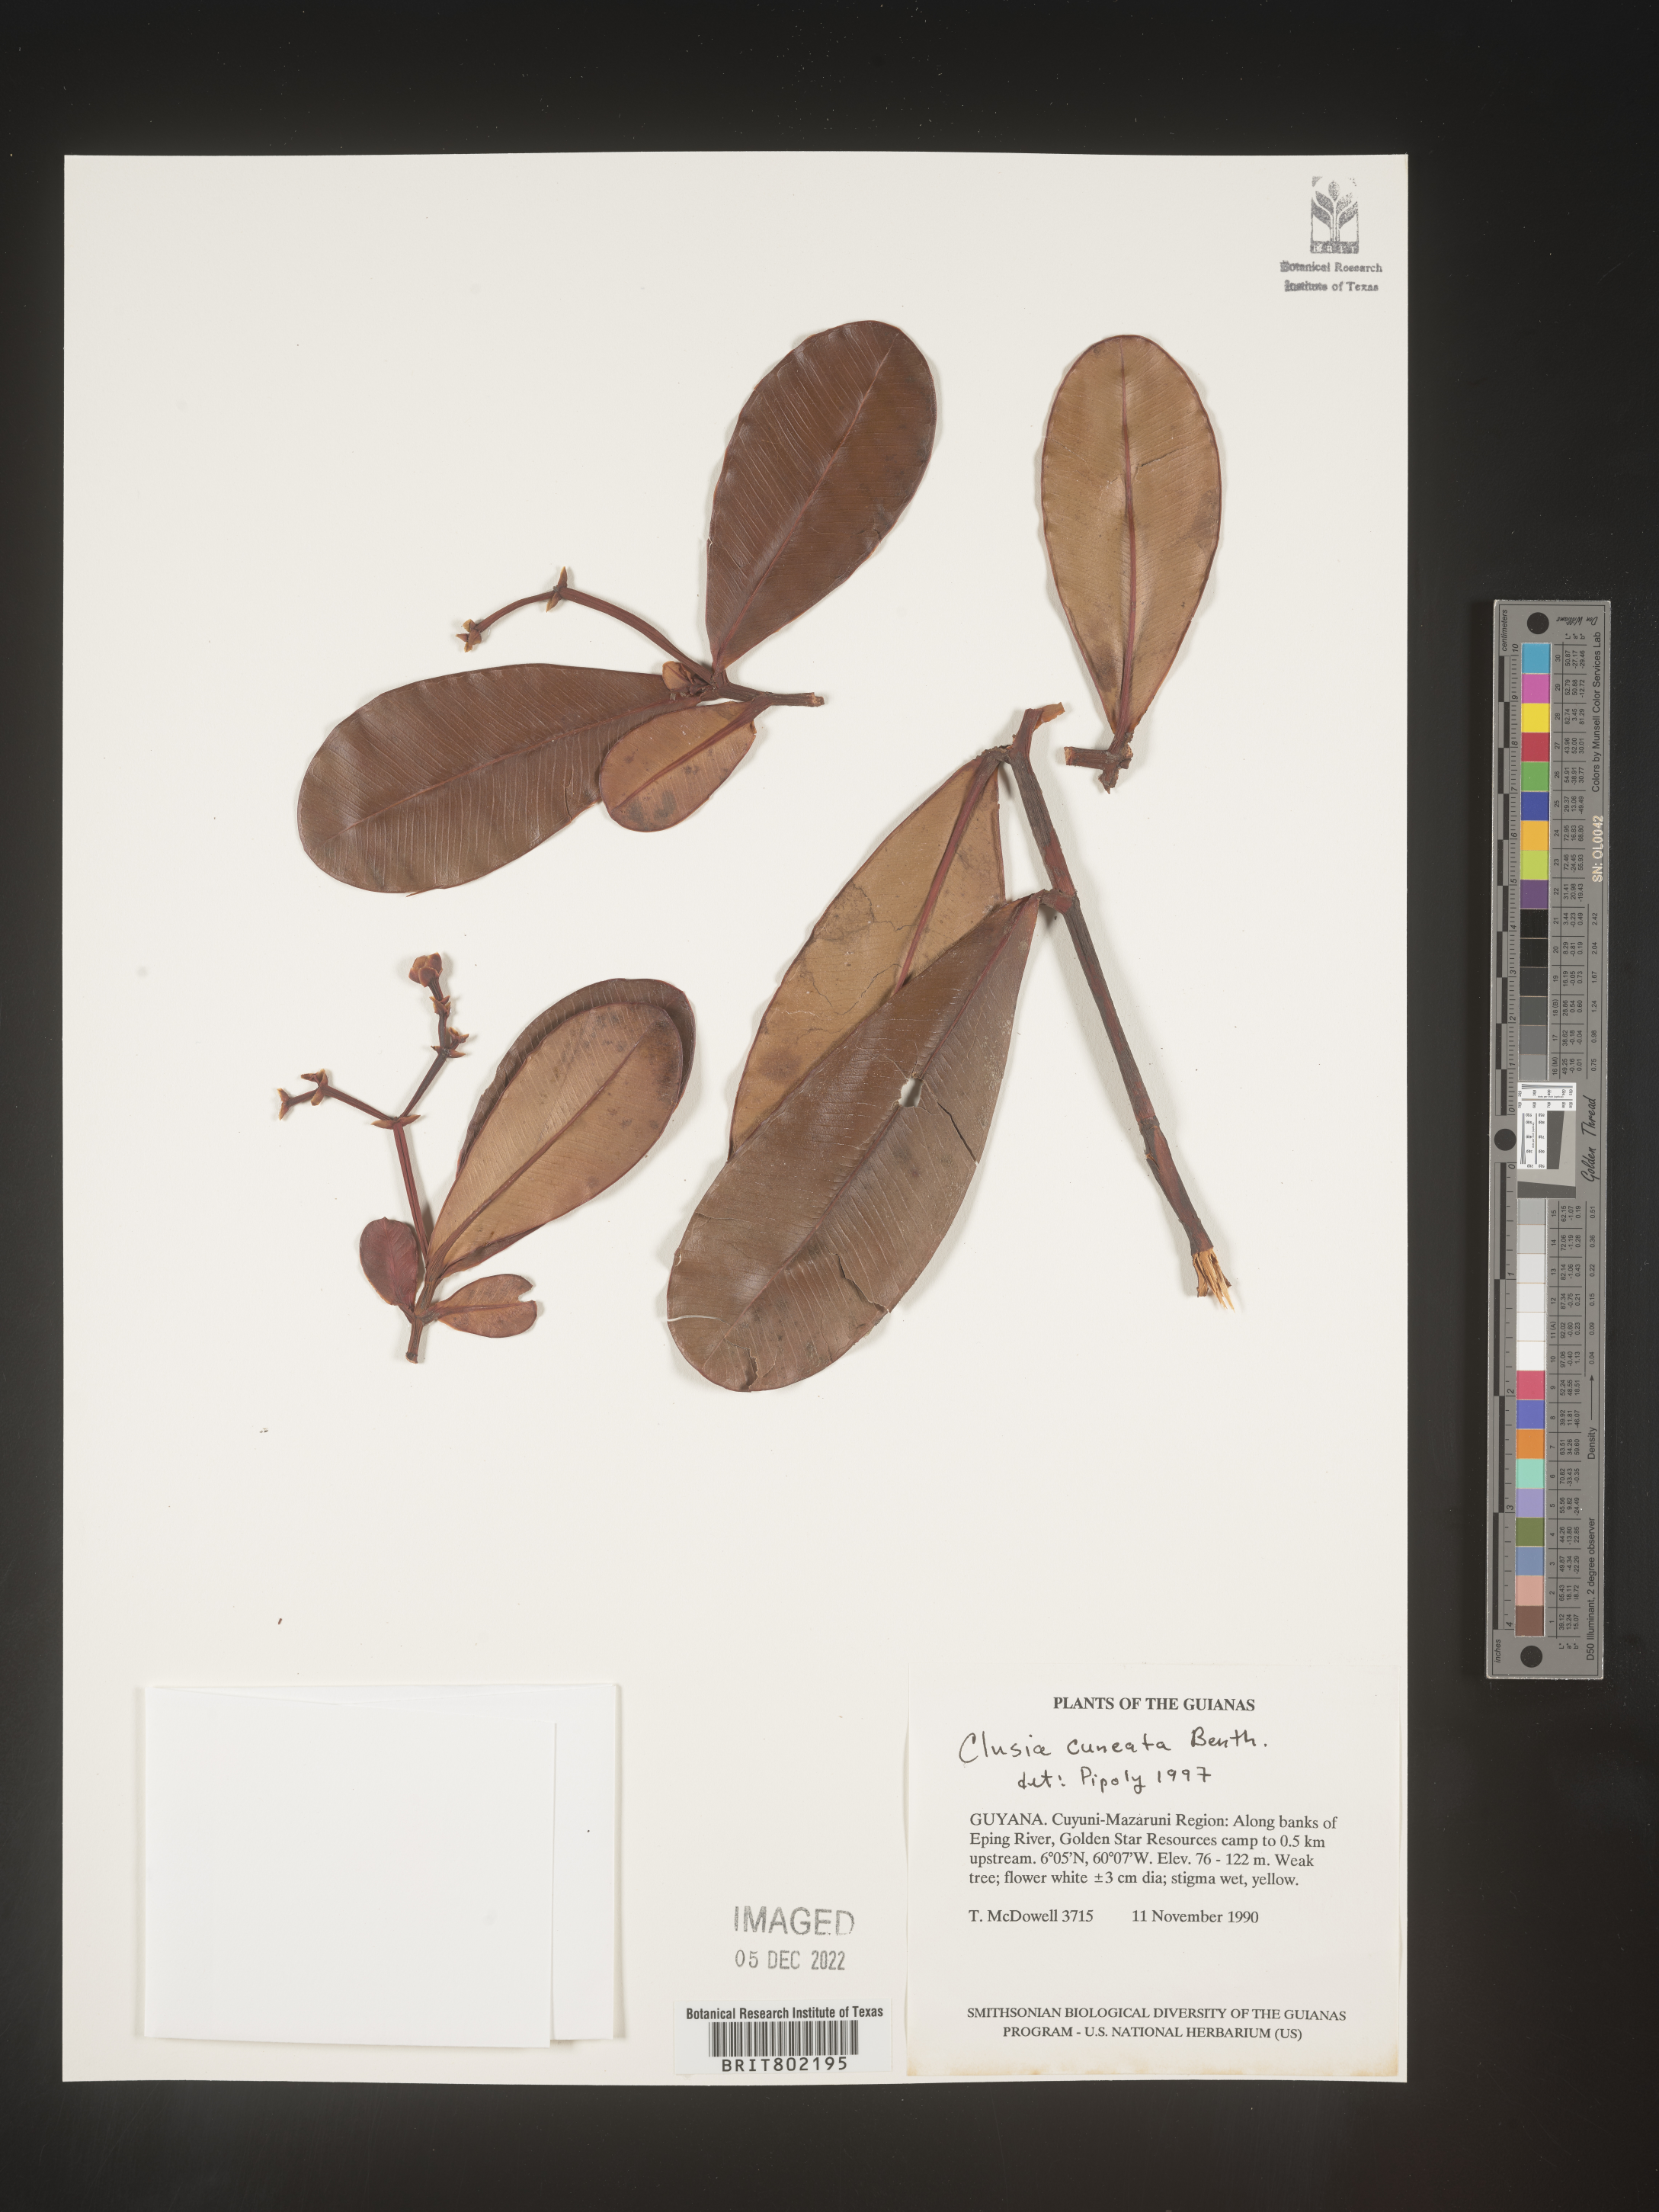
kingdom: Plantae
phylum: Tracheophyta
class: Magnoliopsida
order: Malpighiales
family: Clusiaceae
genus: Clusia
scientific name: Clusia
